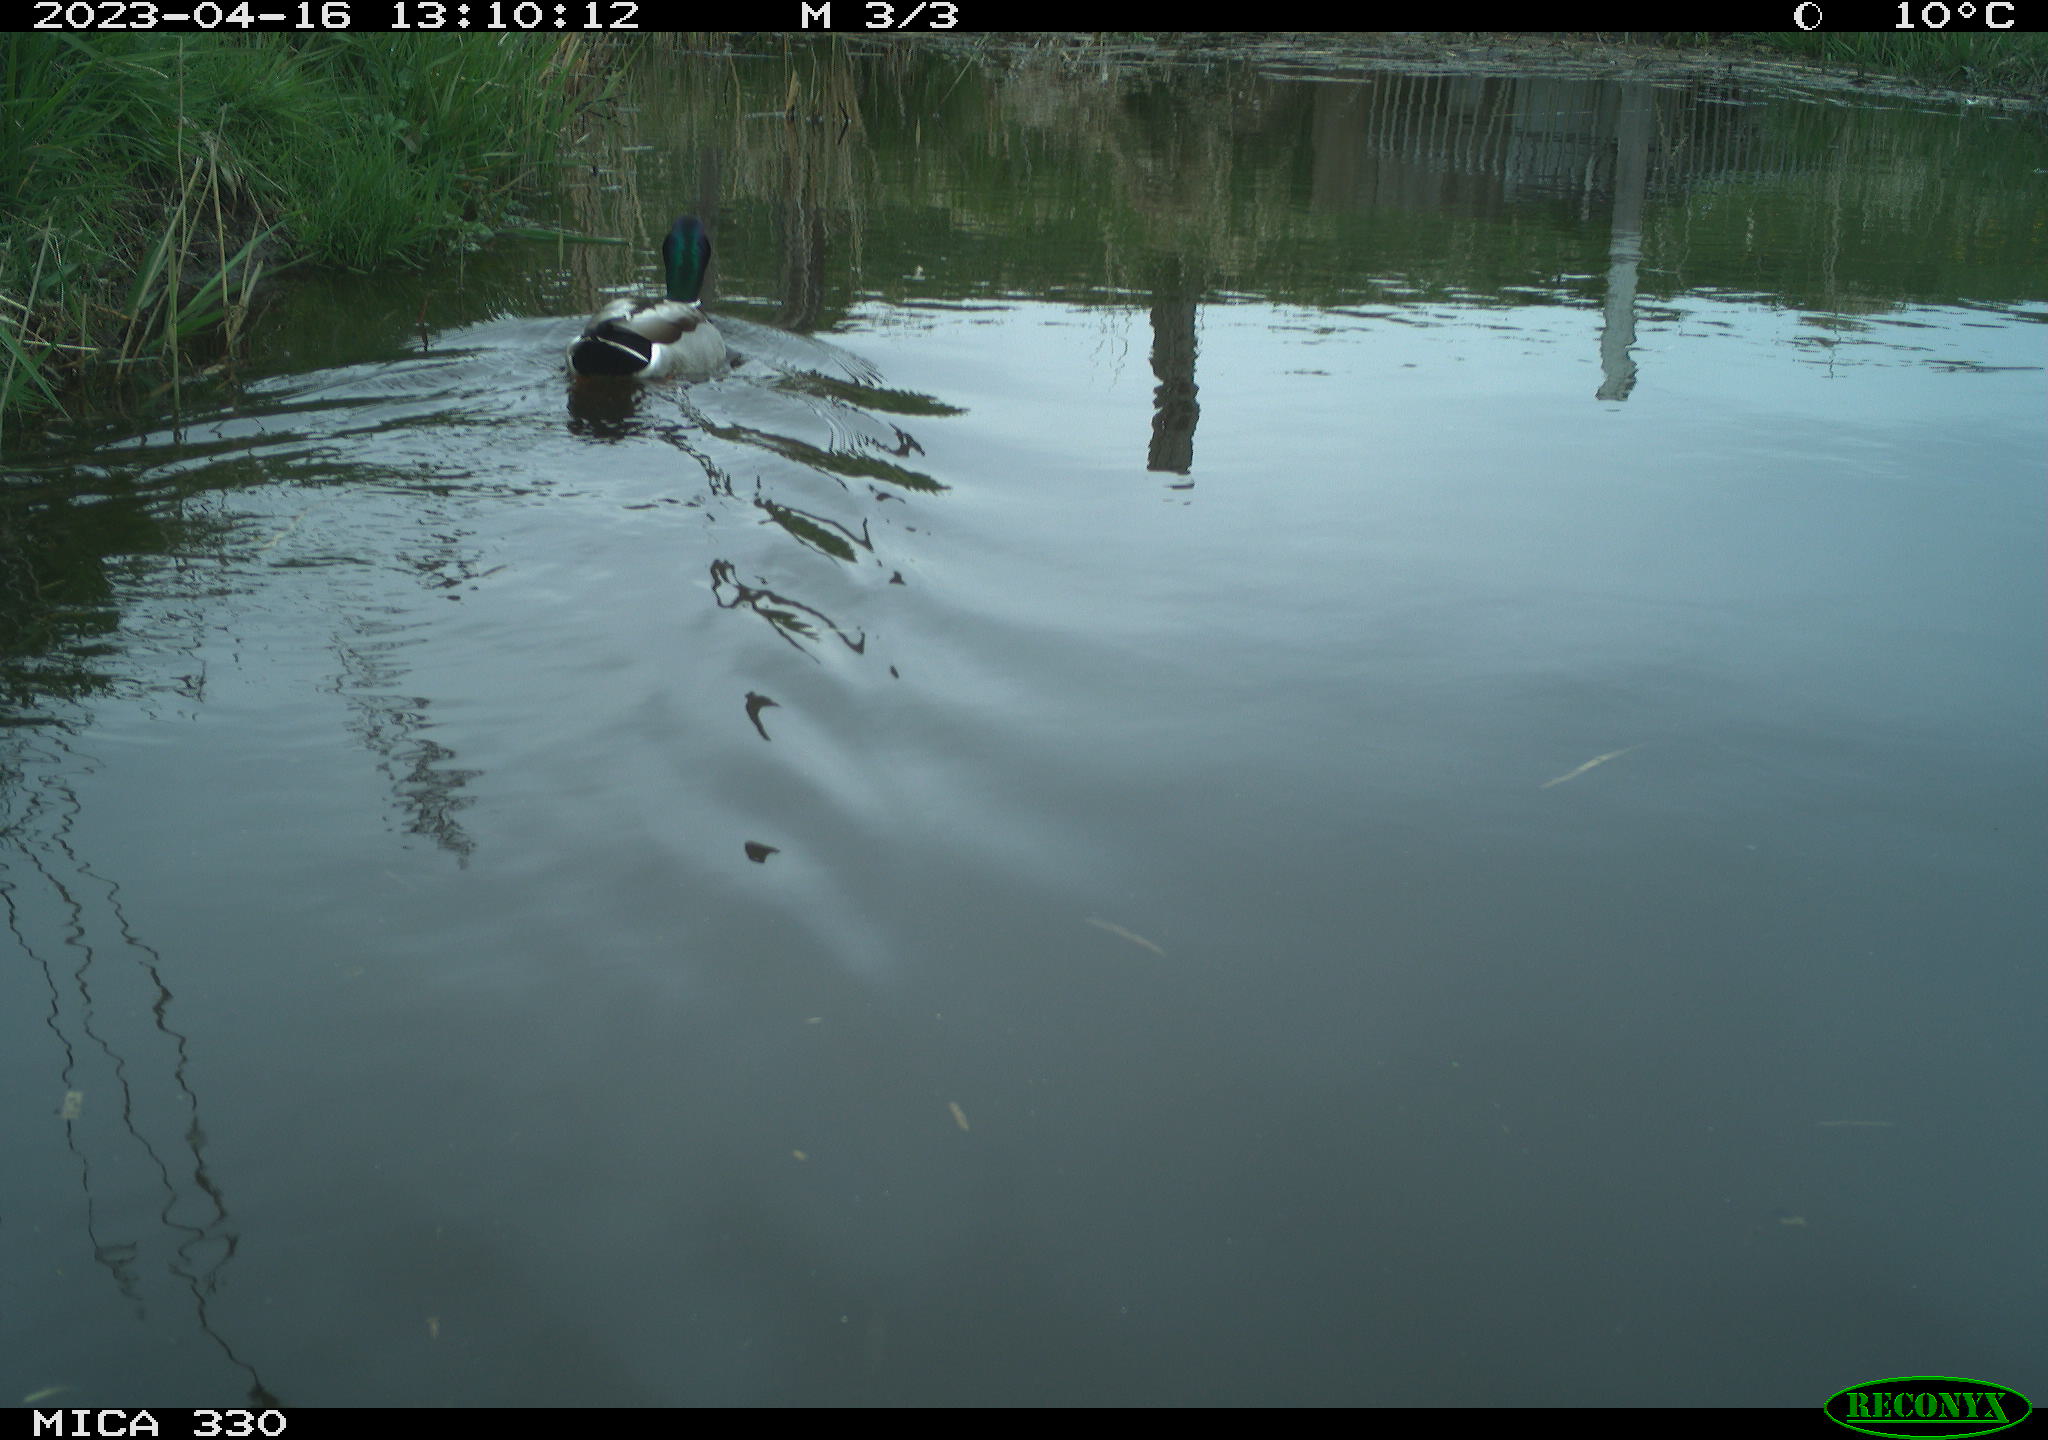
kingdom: Animalia
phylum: Chordata
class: Aves
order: Anseriformes
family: Anatidae
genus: Anas
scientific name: Anas
